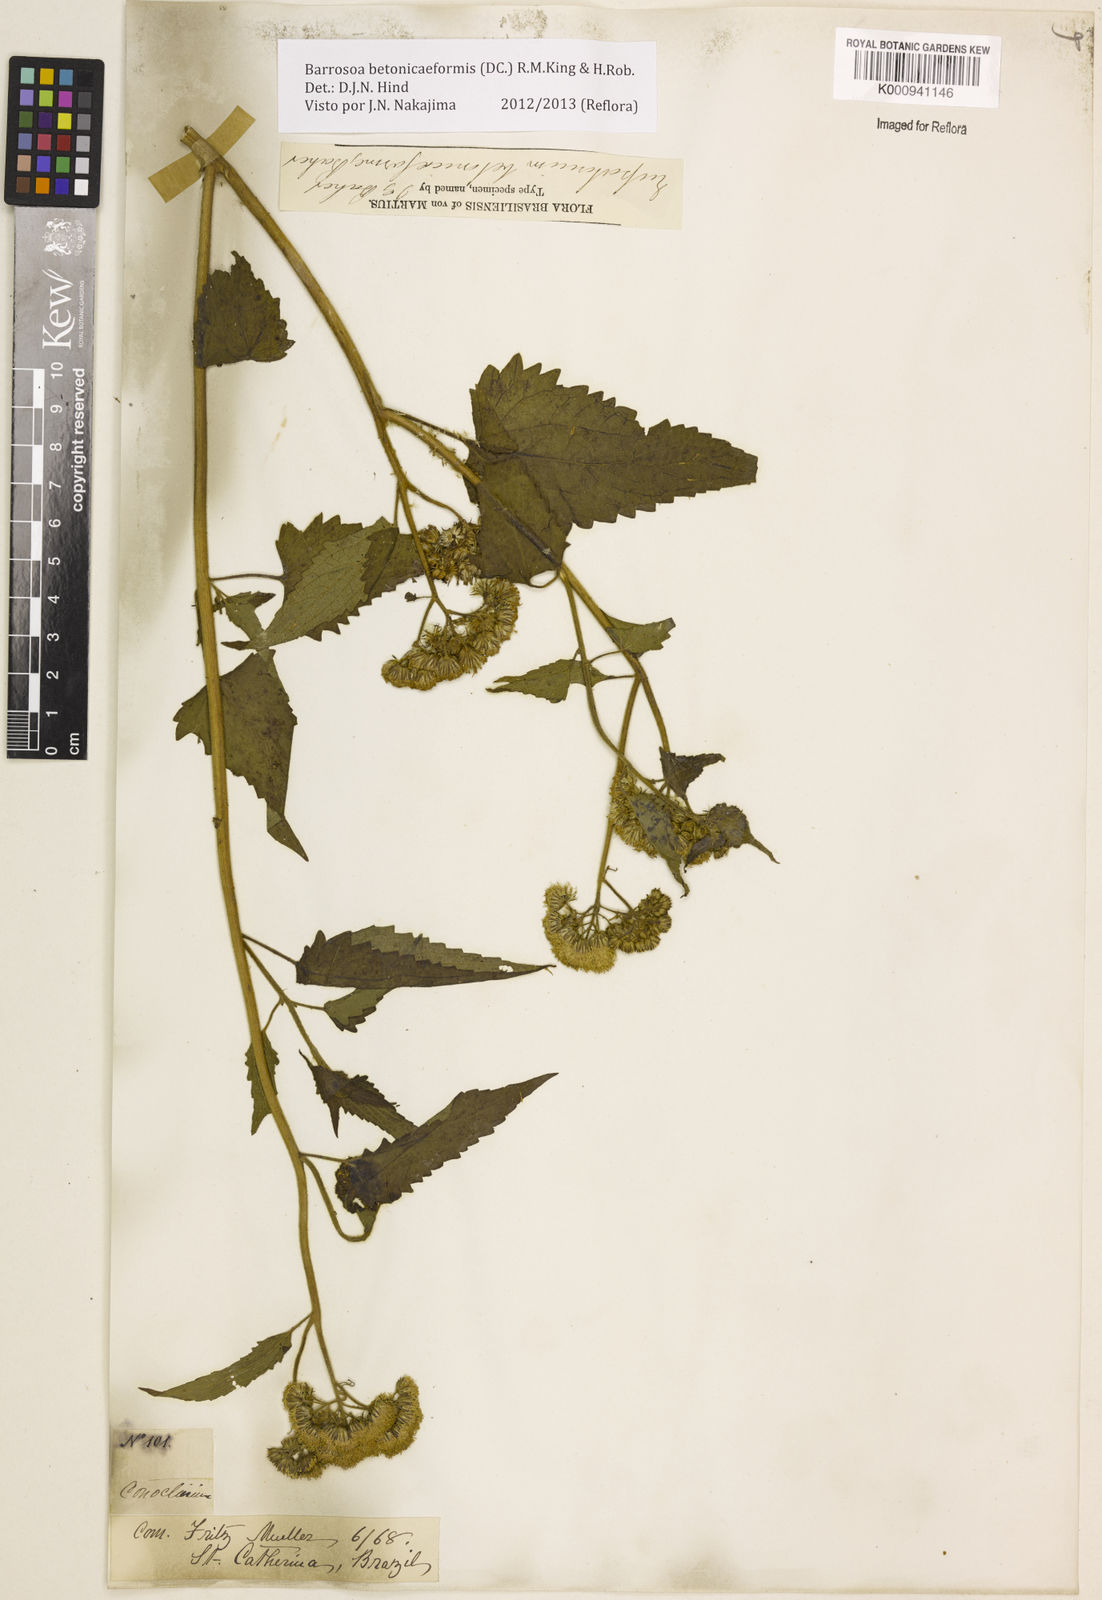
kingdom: Plantae
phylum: Tracheophyta
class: Magnoliopsida
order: Asterales
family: Asteraceae
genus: Barrosoa
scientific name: Barrosoa betoniciformis
